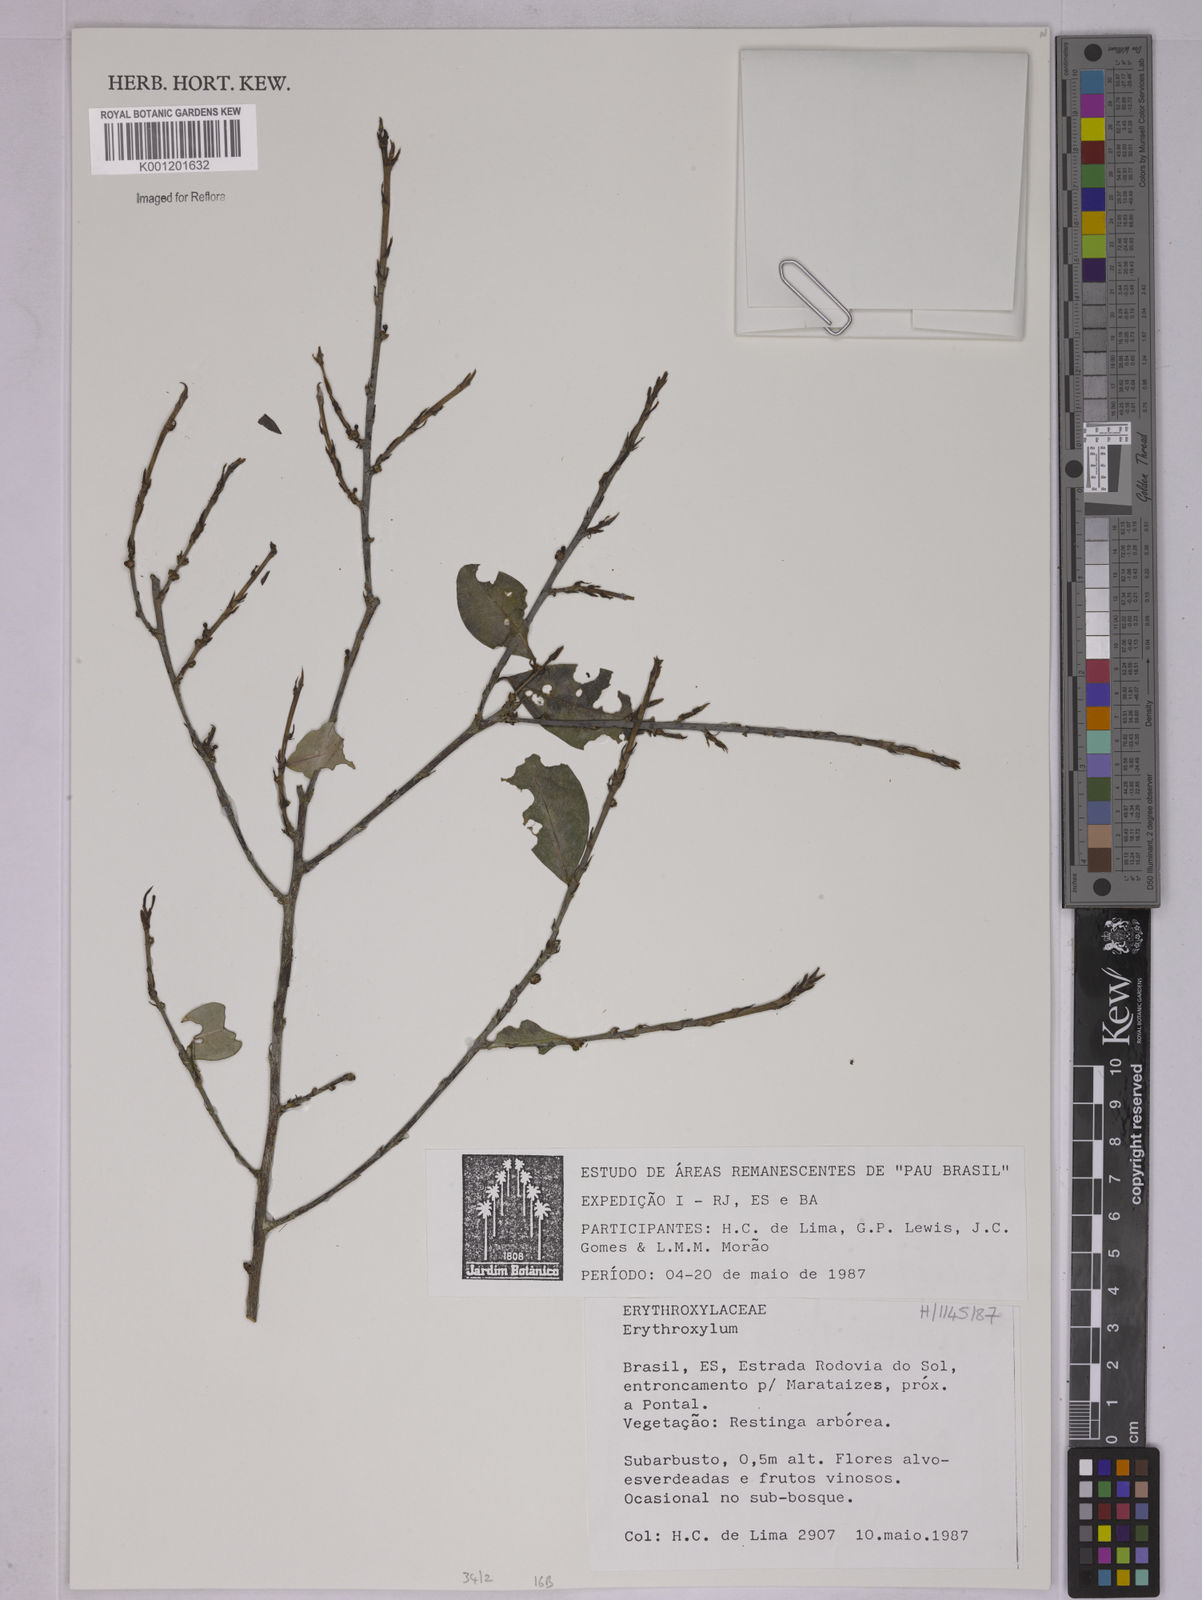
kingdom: Plantae
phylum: Tracheophyta
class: Magnoliopsida
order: Malpighiales
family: Erythroxylaceae
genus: Erythroxylum
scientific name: Erythroxylum
